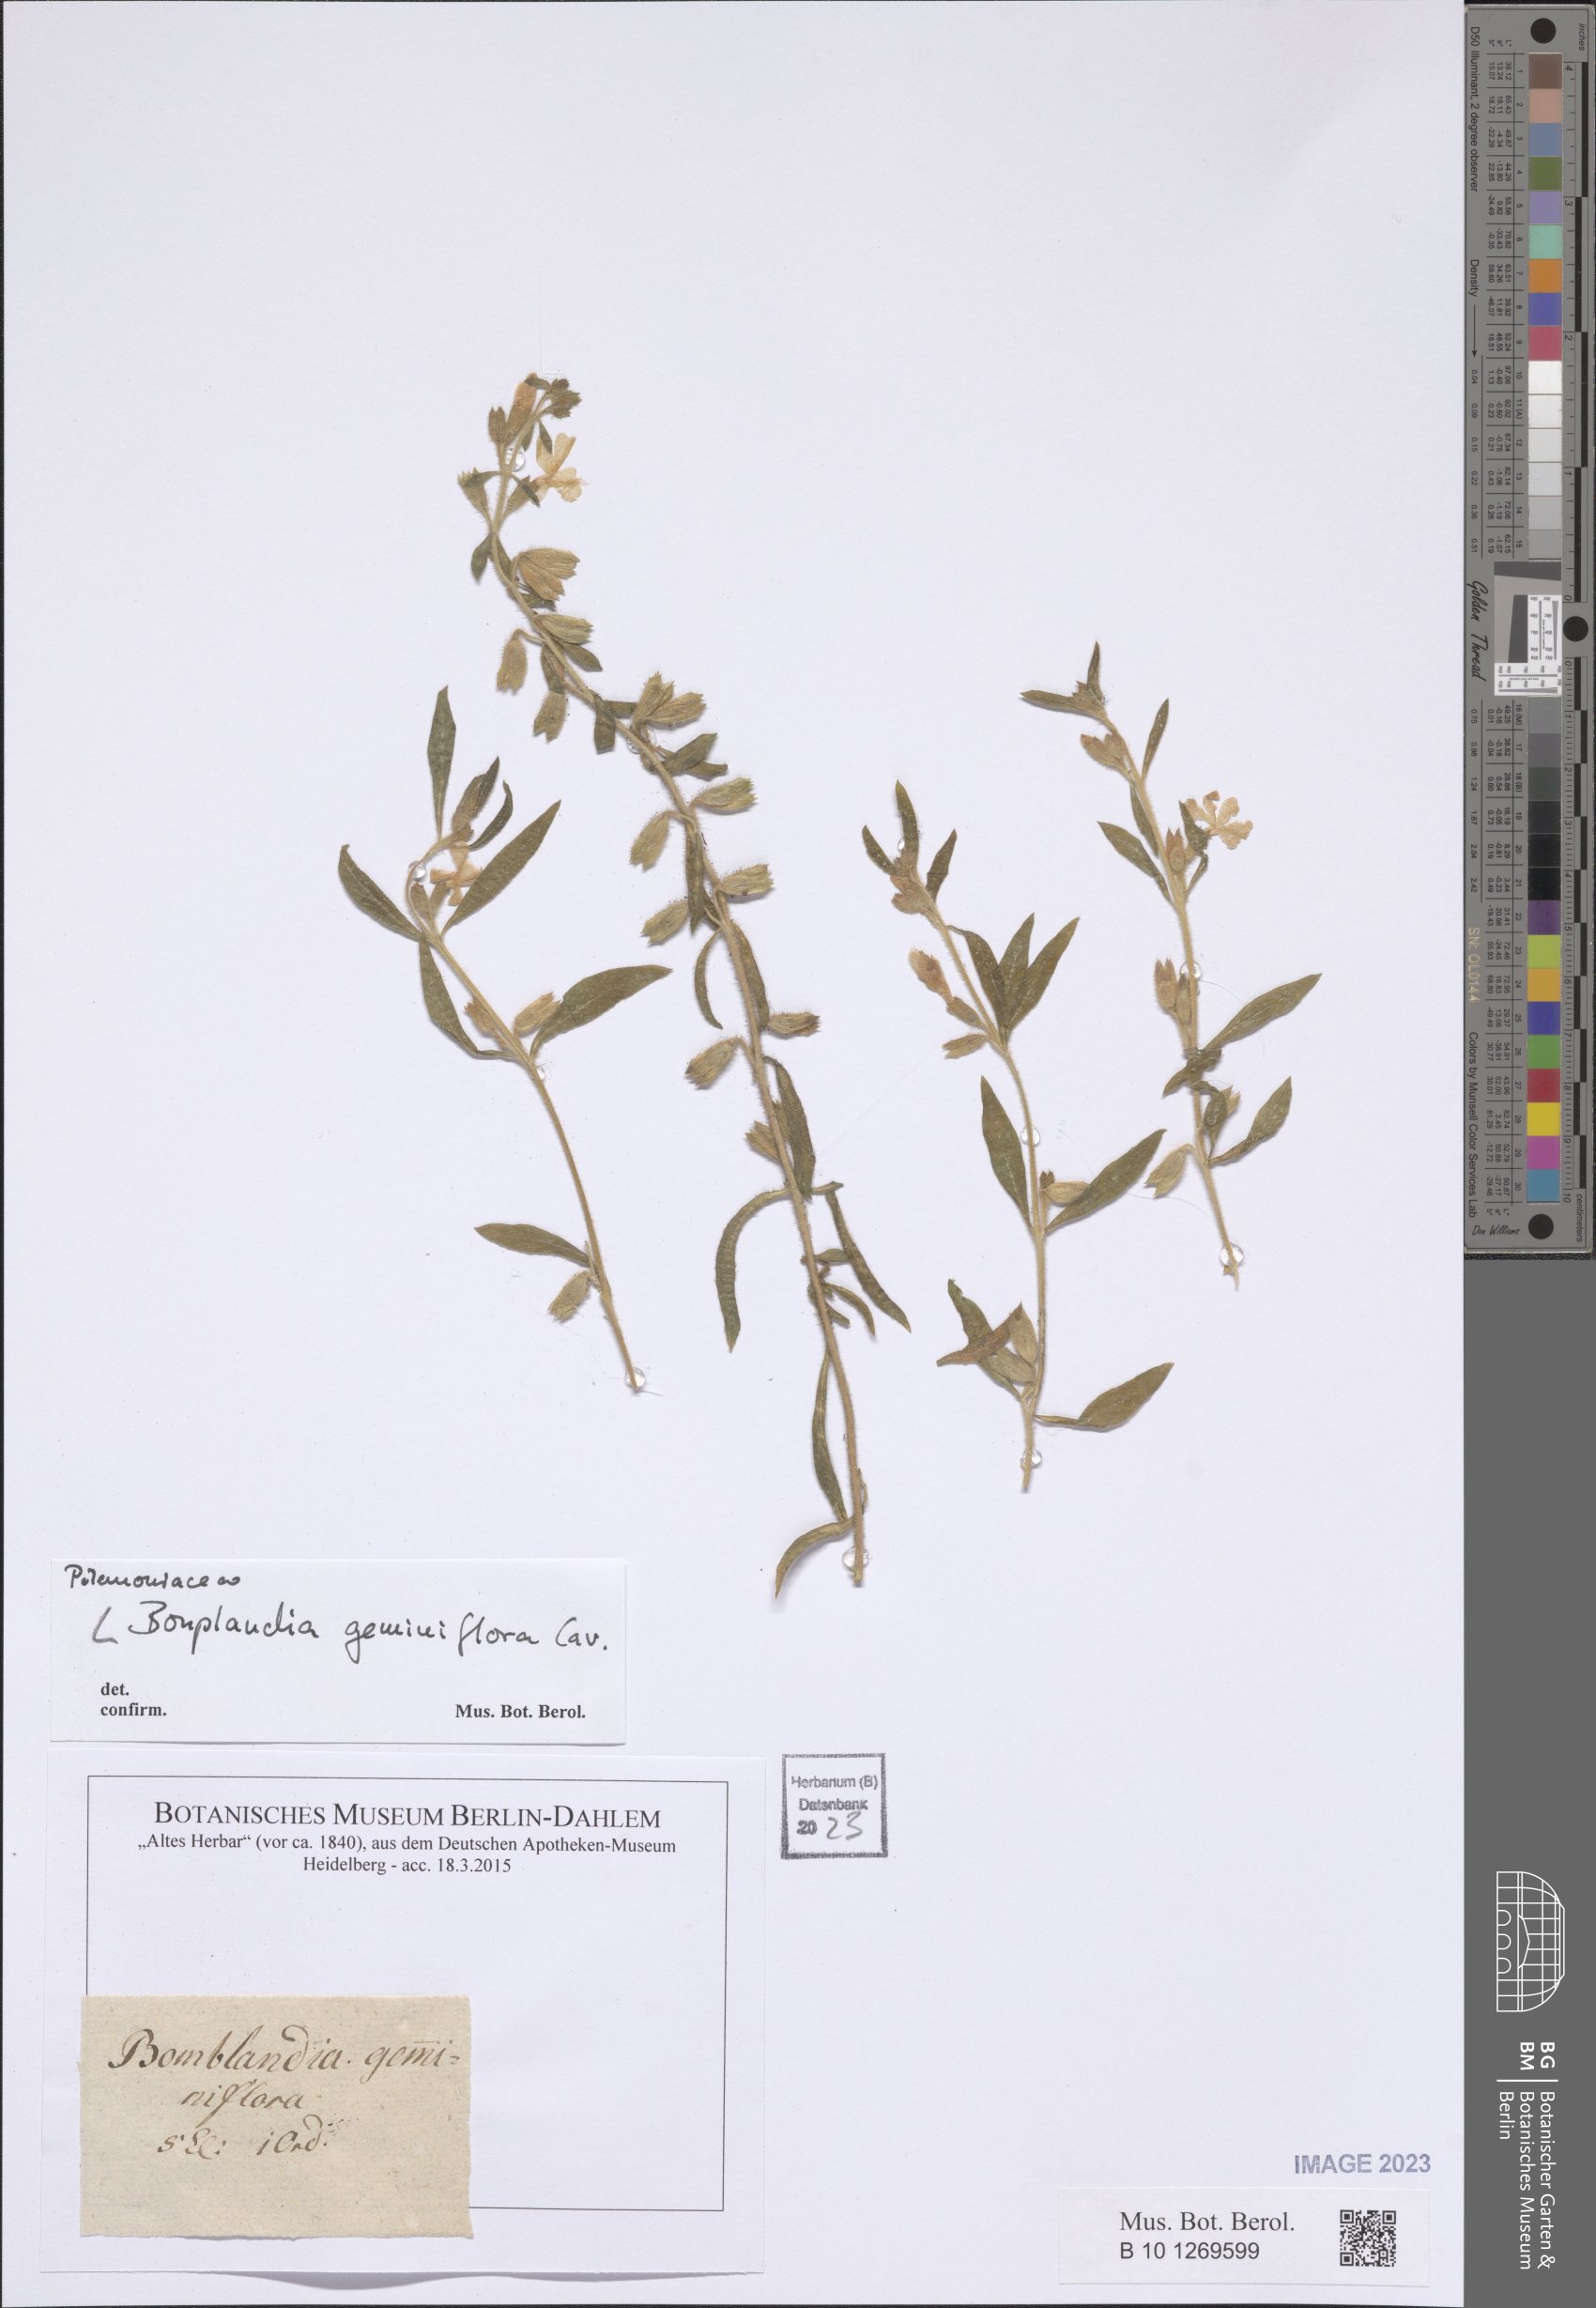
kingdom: Plantae
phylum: Tracheophyta
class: Magnoliopsida
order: Ericales
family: Polemoniaceae
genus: Bonplandia
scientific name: Bonplandia geminiflora
